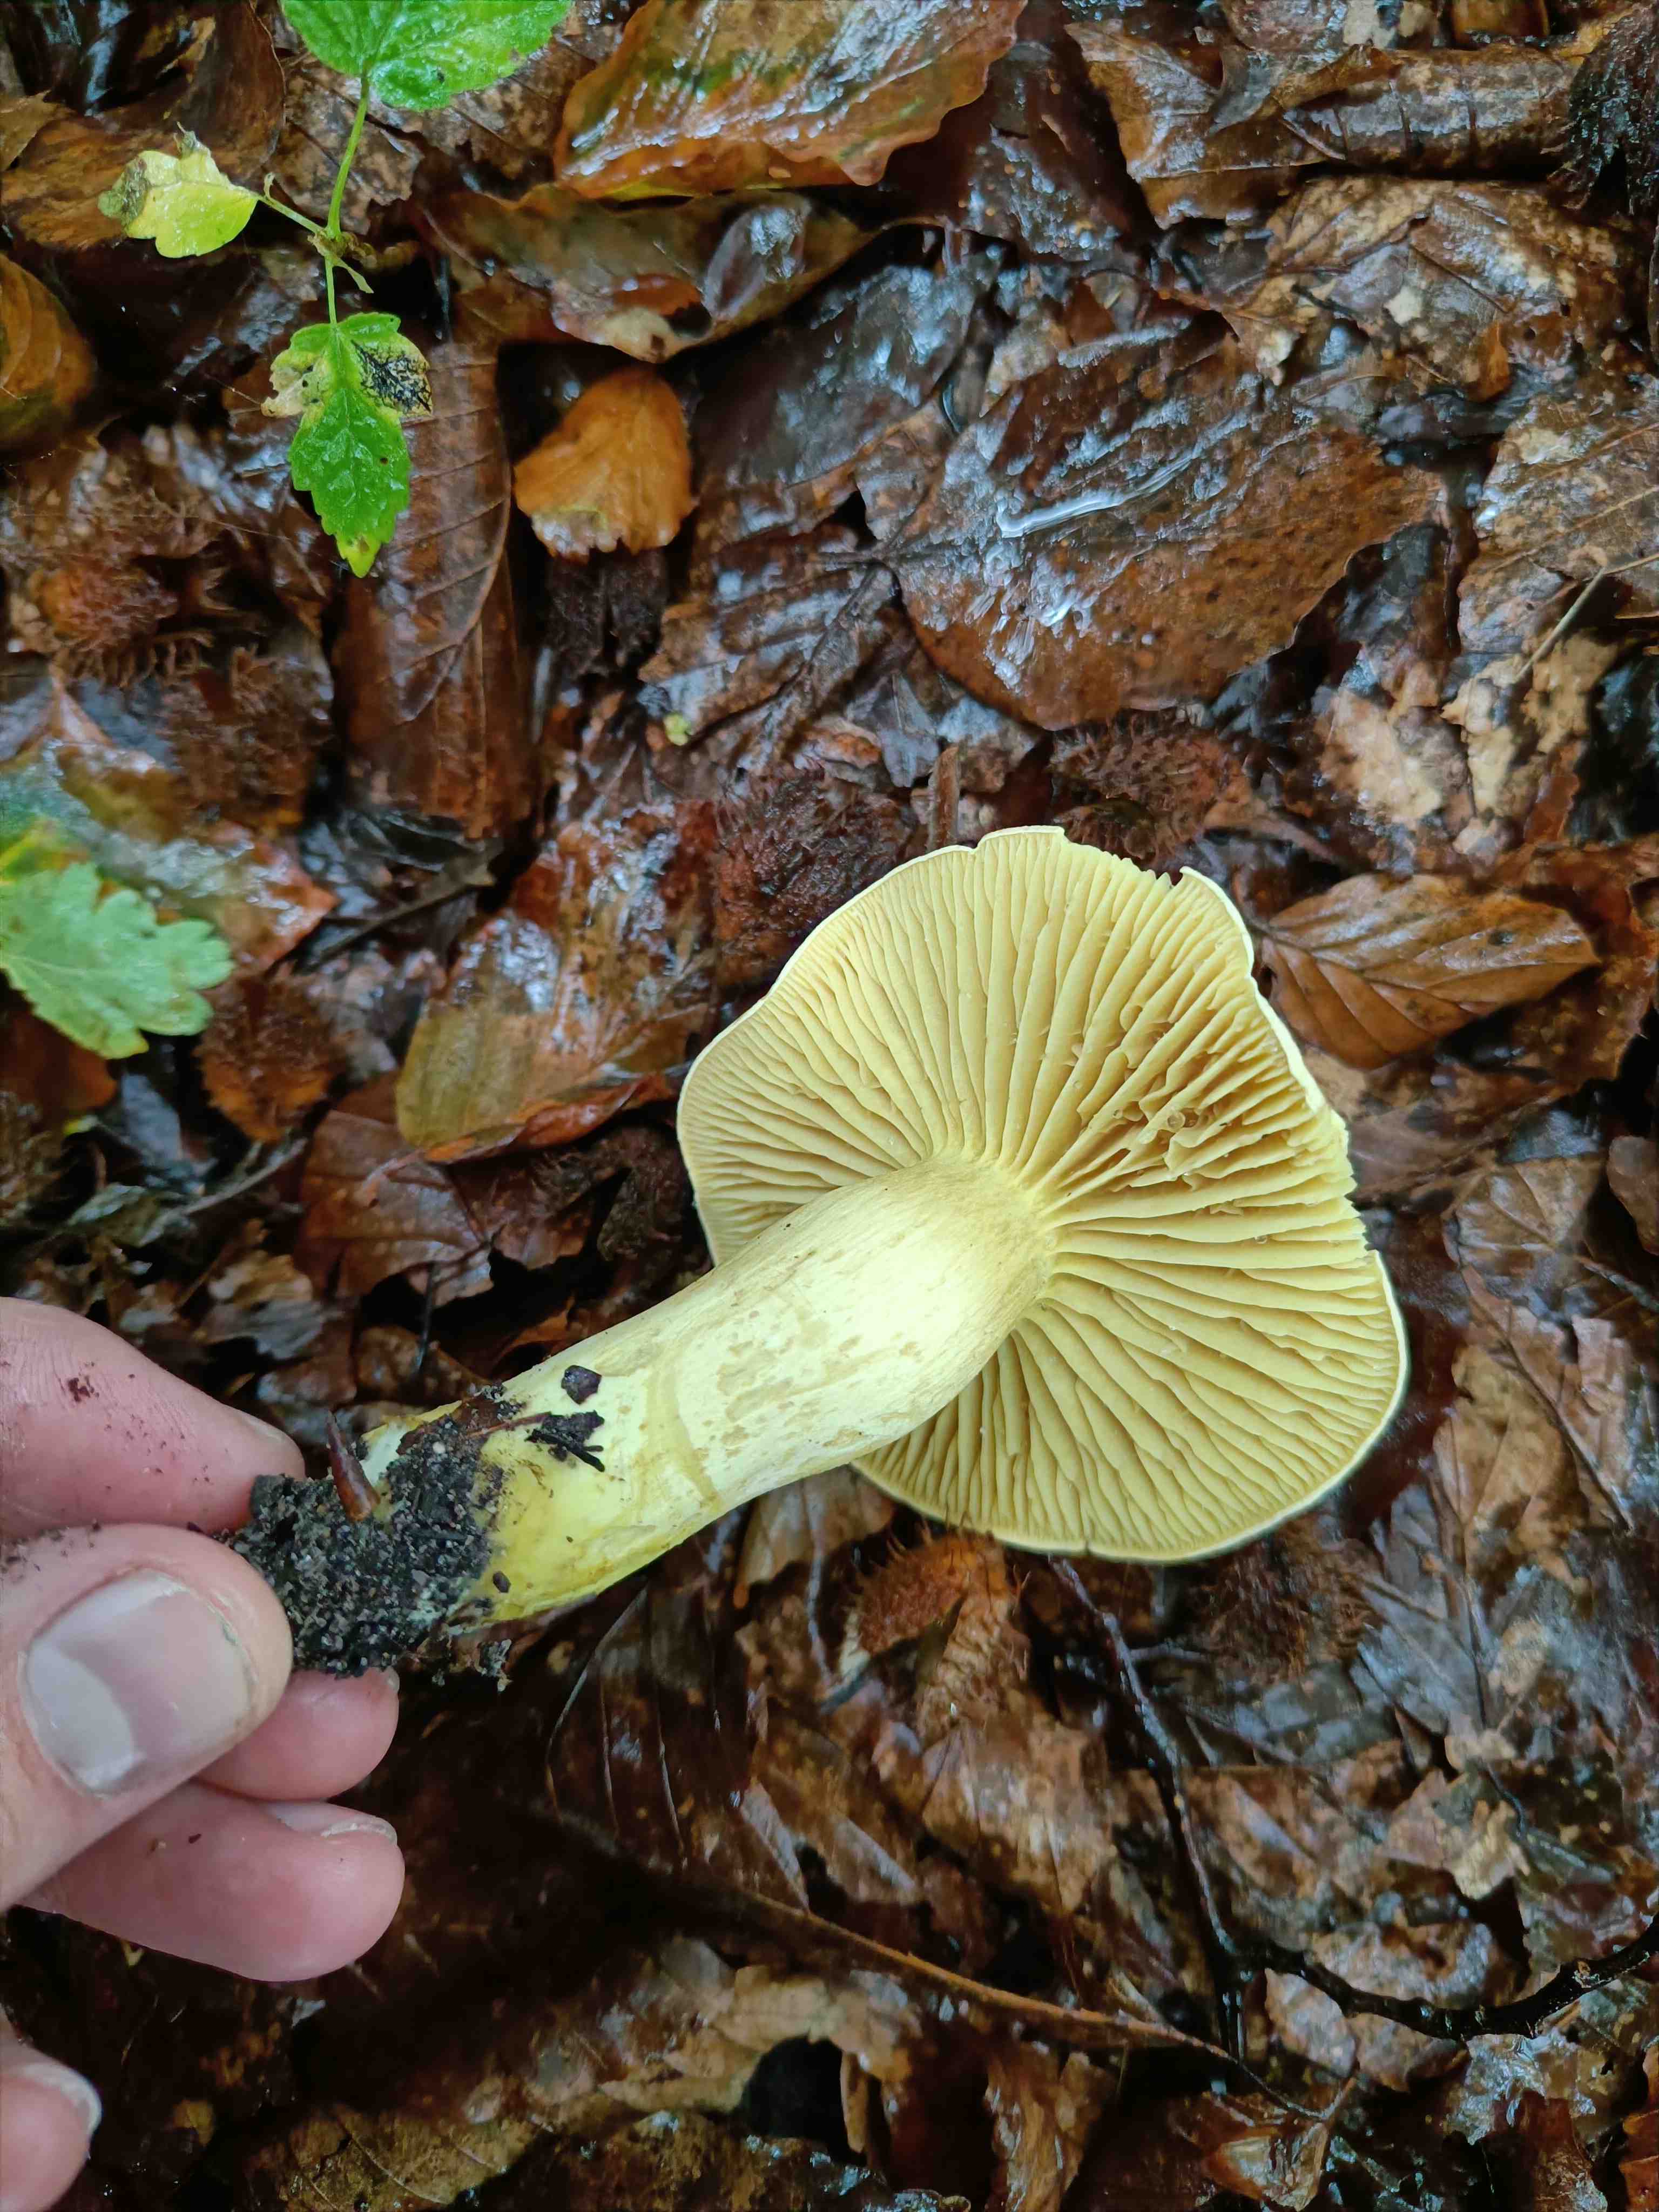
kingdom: Fungi
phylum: Basidiomycota
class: Agaricomycetes
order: Agaricales
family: Tricholomataceae
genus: Tricholoma
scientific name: Tricholoma sulphureum
